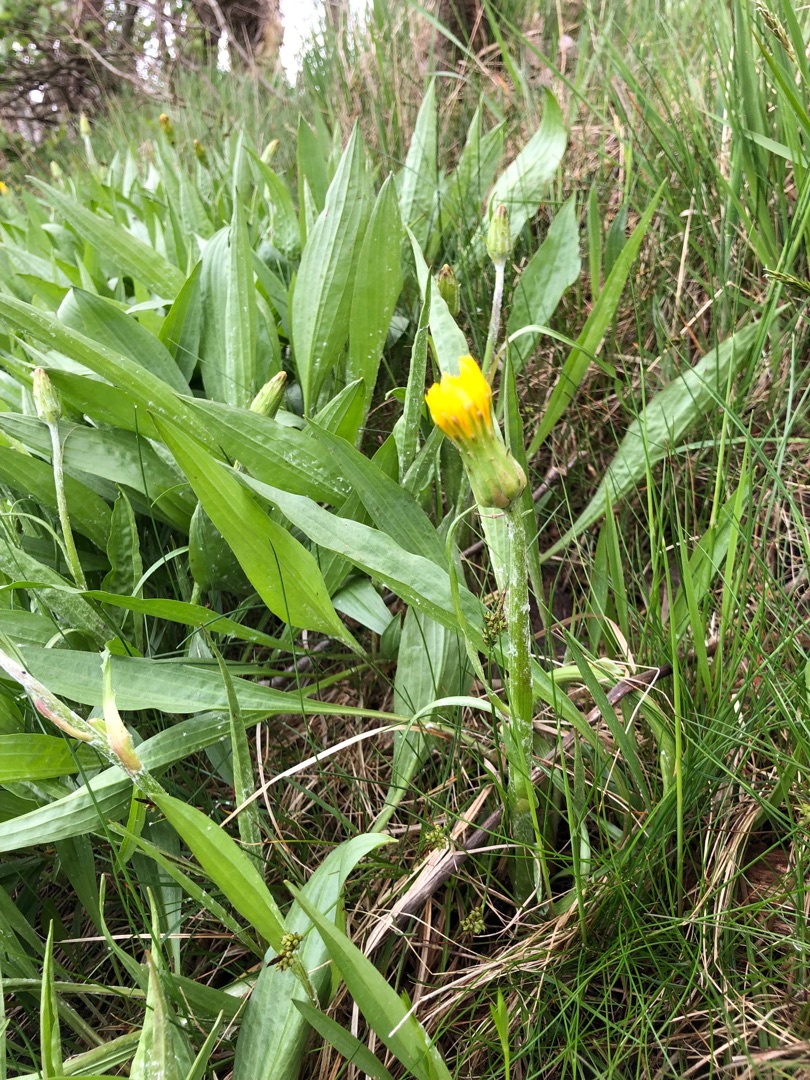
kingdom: Plantae
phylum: Tracheophyta
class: Magnoliopsida
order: Asterales
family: Asteraceae
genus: Scorzonera
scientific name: Scorzonera humilis
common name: Lav skorsoner
